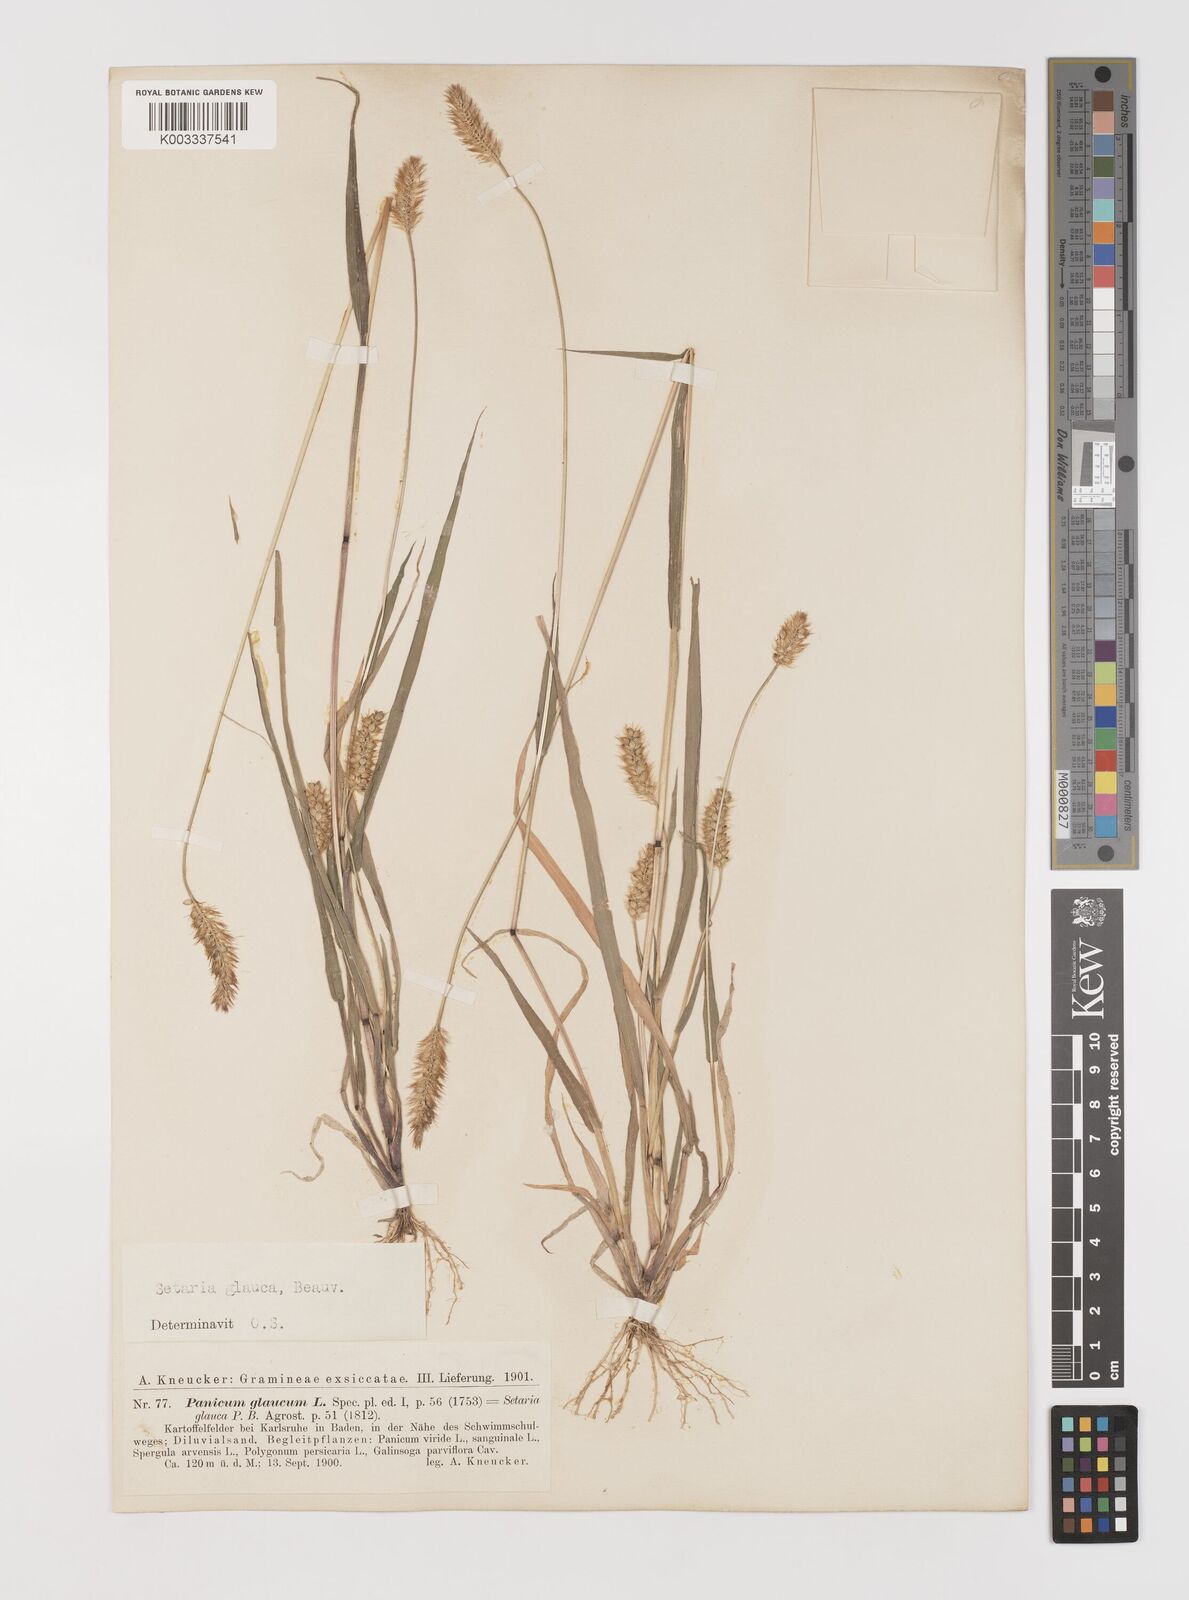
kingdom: Plantae
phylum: Tracheophyta
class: Liliopsida
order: Poales
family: Poaceae
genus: Setaria
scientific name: Setaria pumila
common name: Yellow bristle-grass
